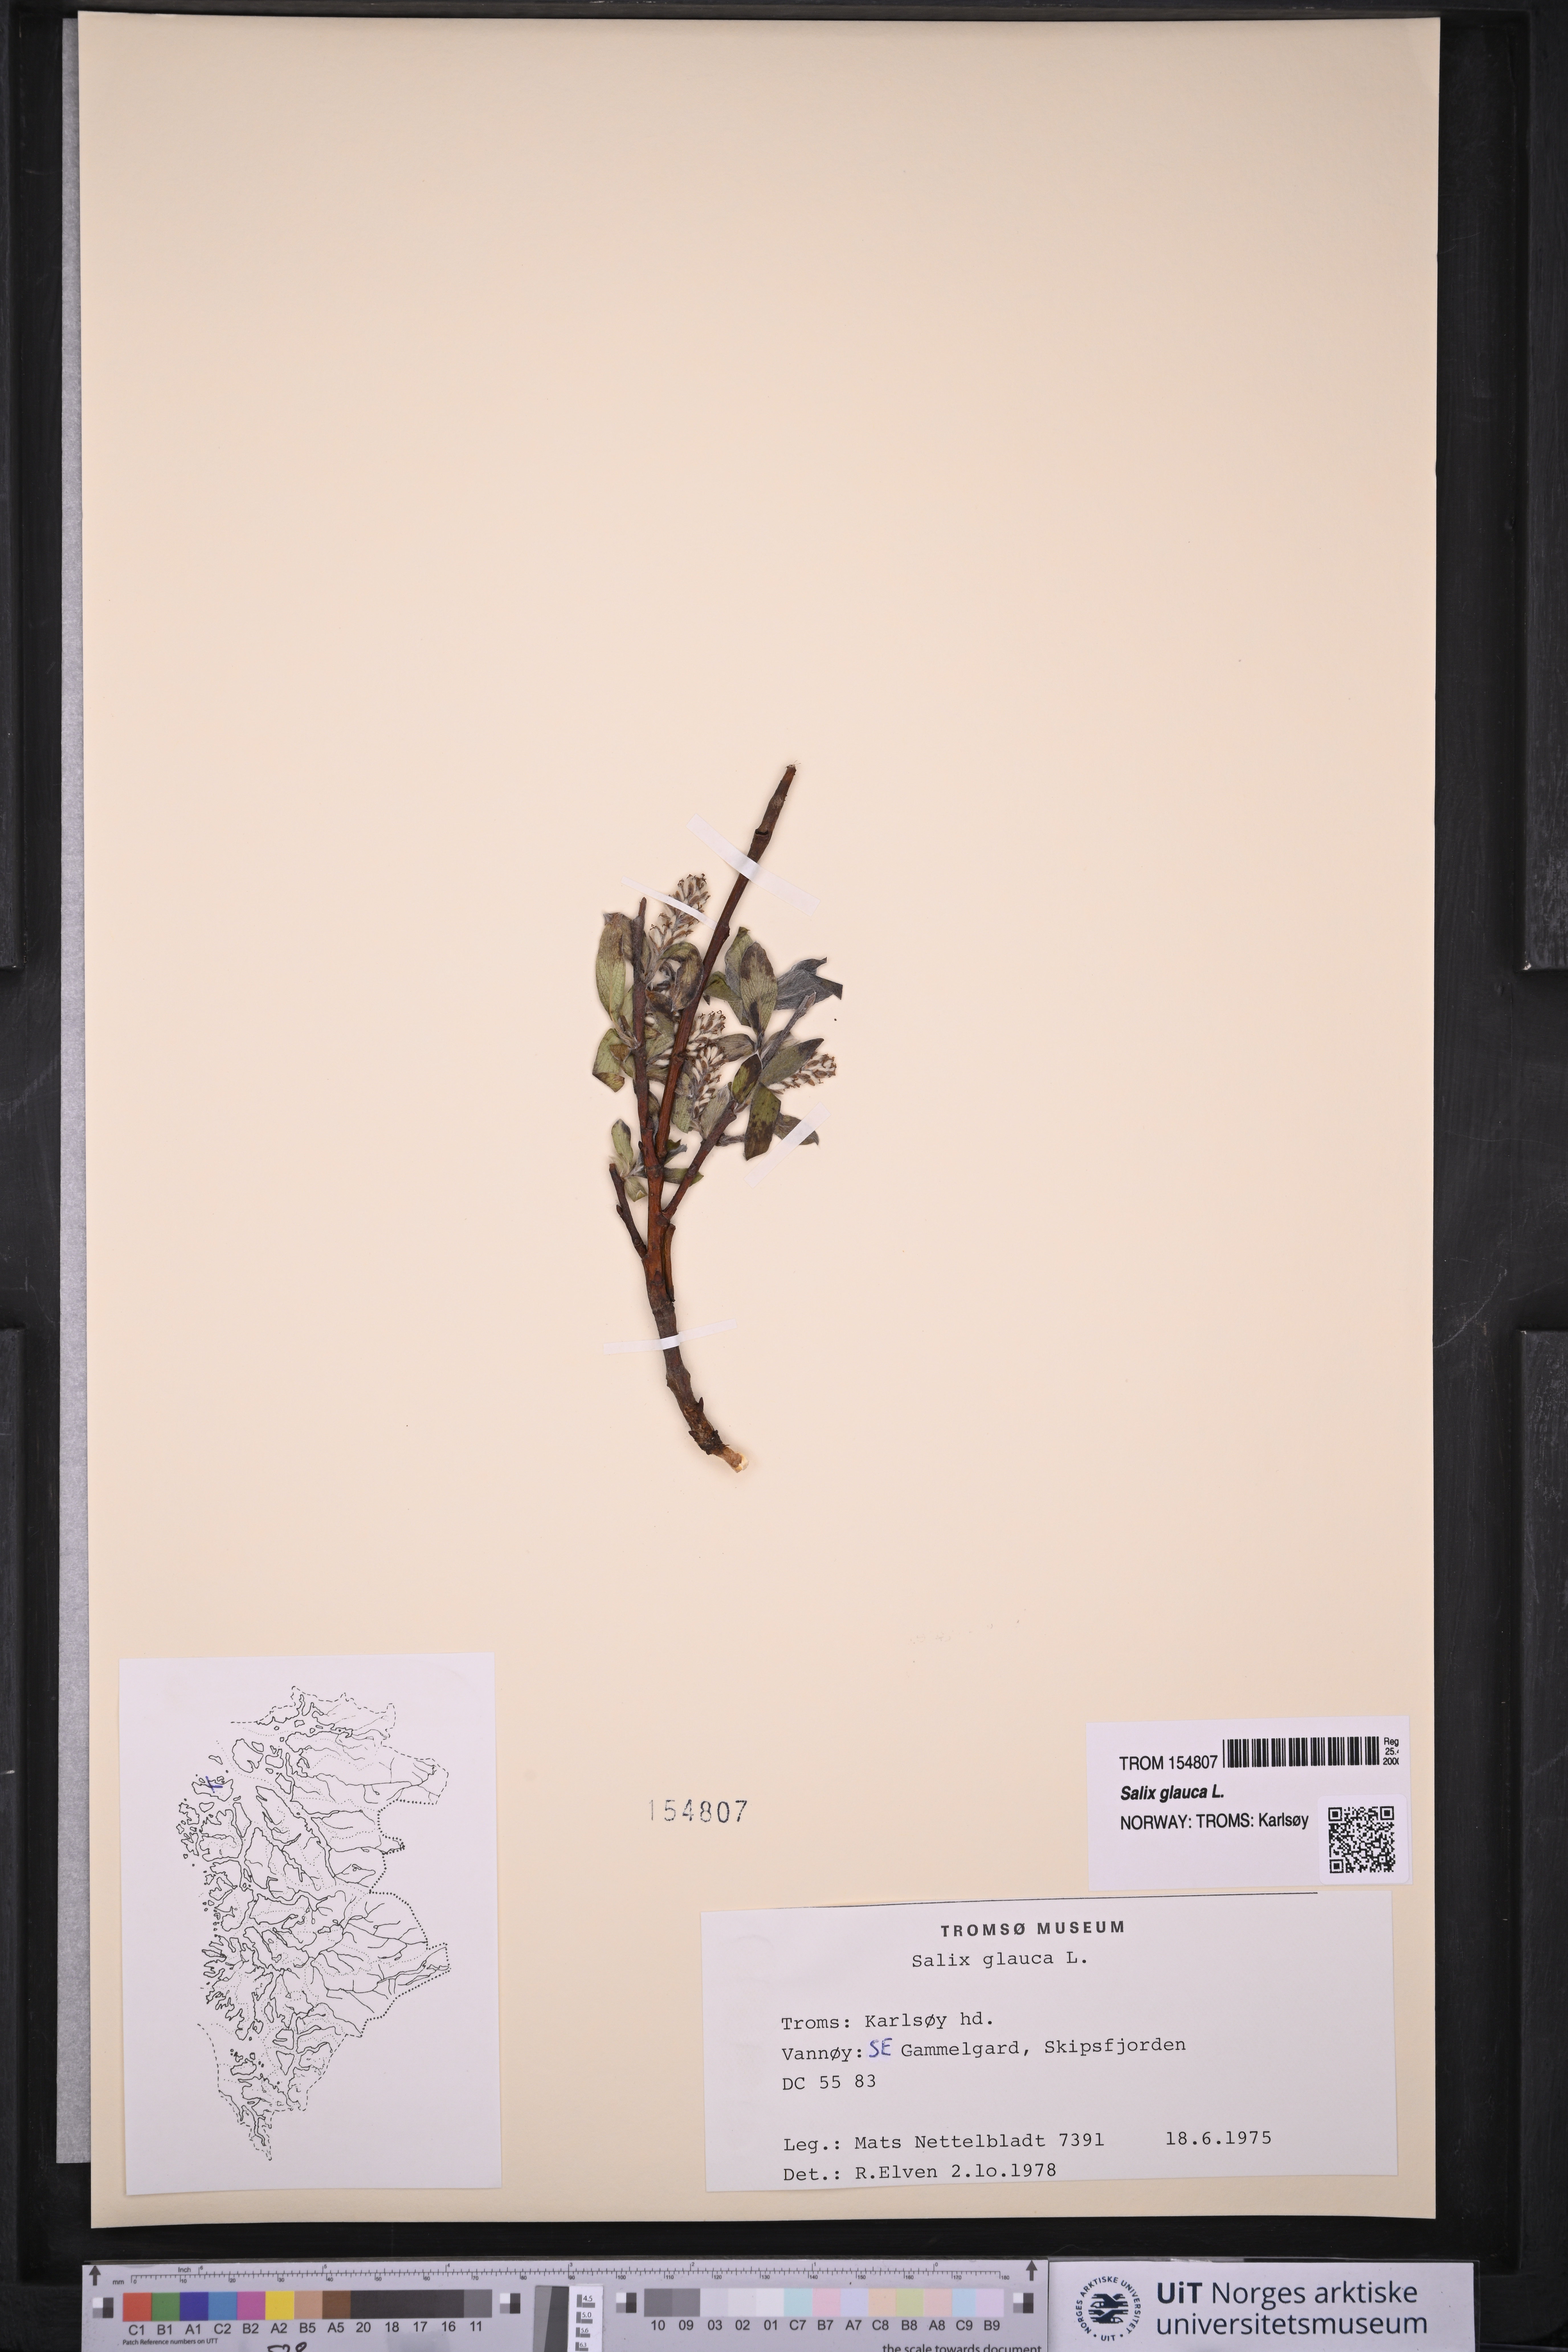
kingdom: Plantae
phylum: Tracheophyta
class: Magnoliopsida
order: Malpighiales
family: Salicaceae
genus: Salix
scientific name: Salix glauca
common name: Glaucous willow
